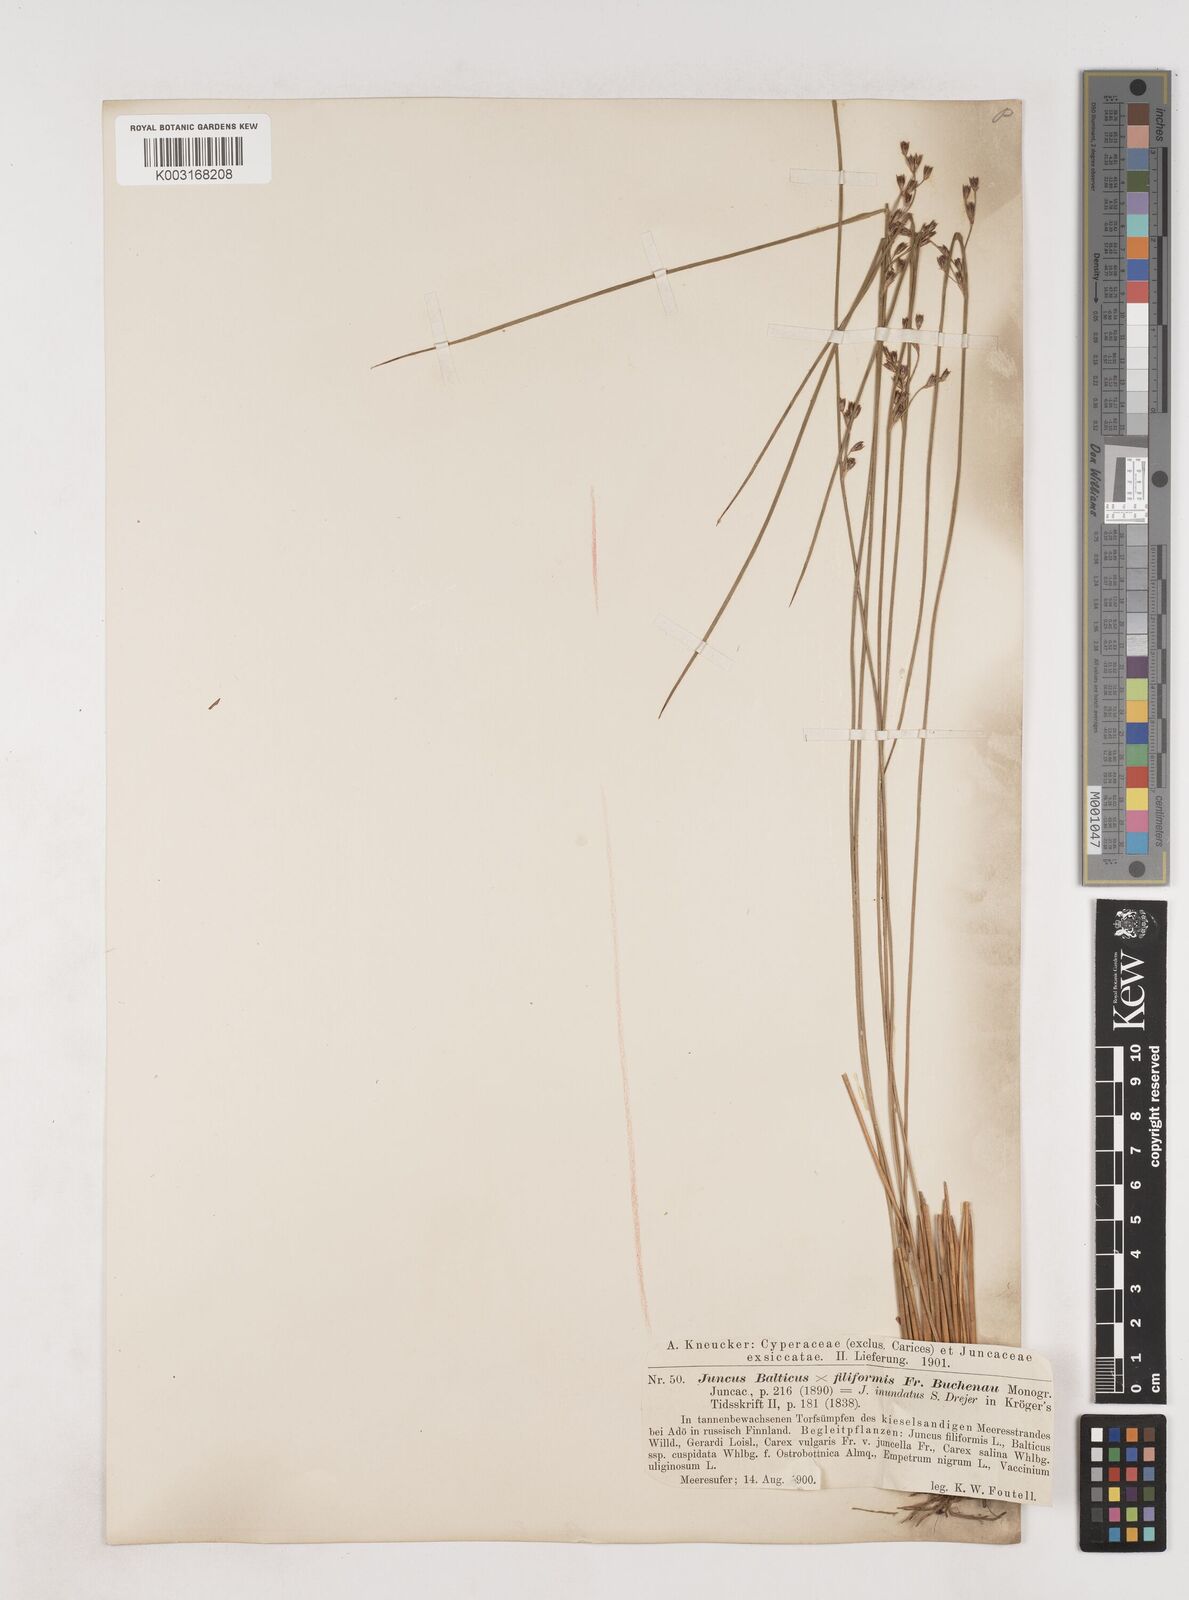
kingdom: Plantae
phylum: Tracheophyta
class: Liliopsida
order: Poales
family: Juncaceae
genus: Juncus
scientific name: Juncus balticus
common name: Baltic rush
